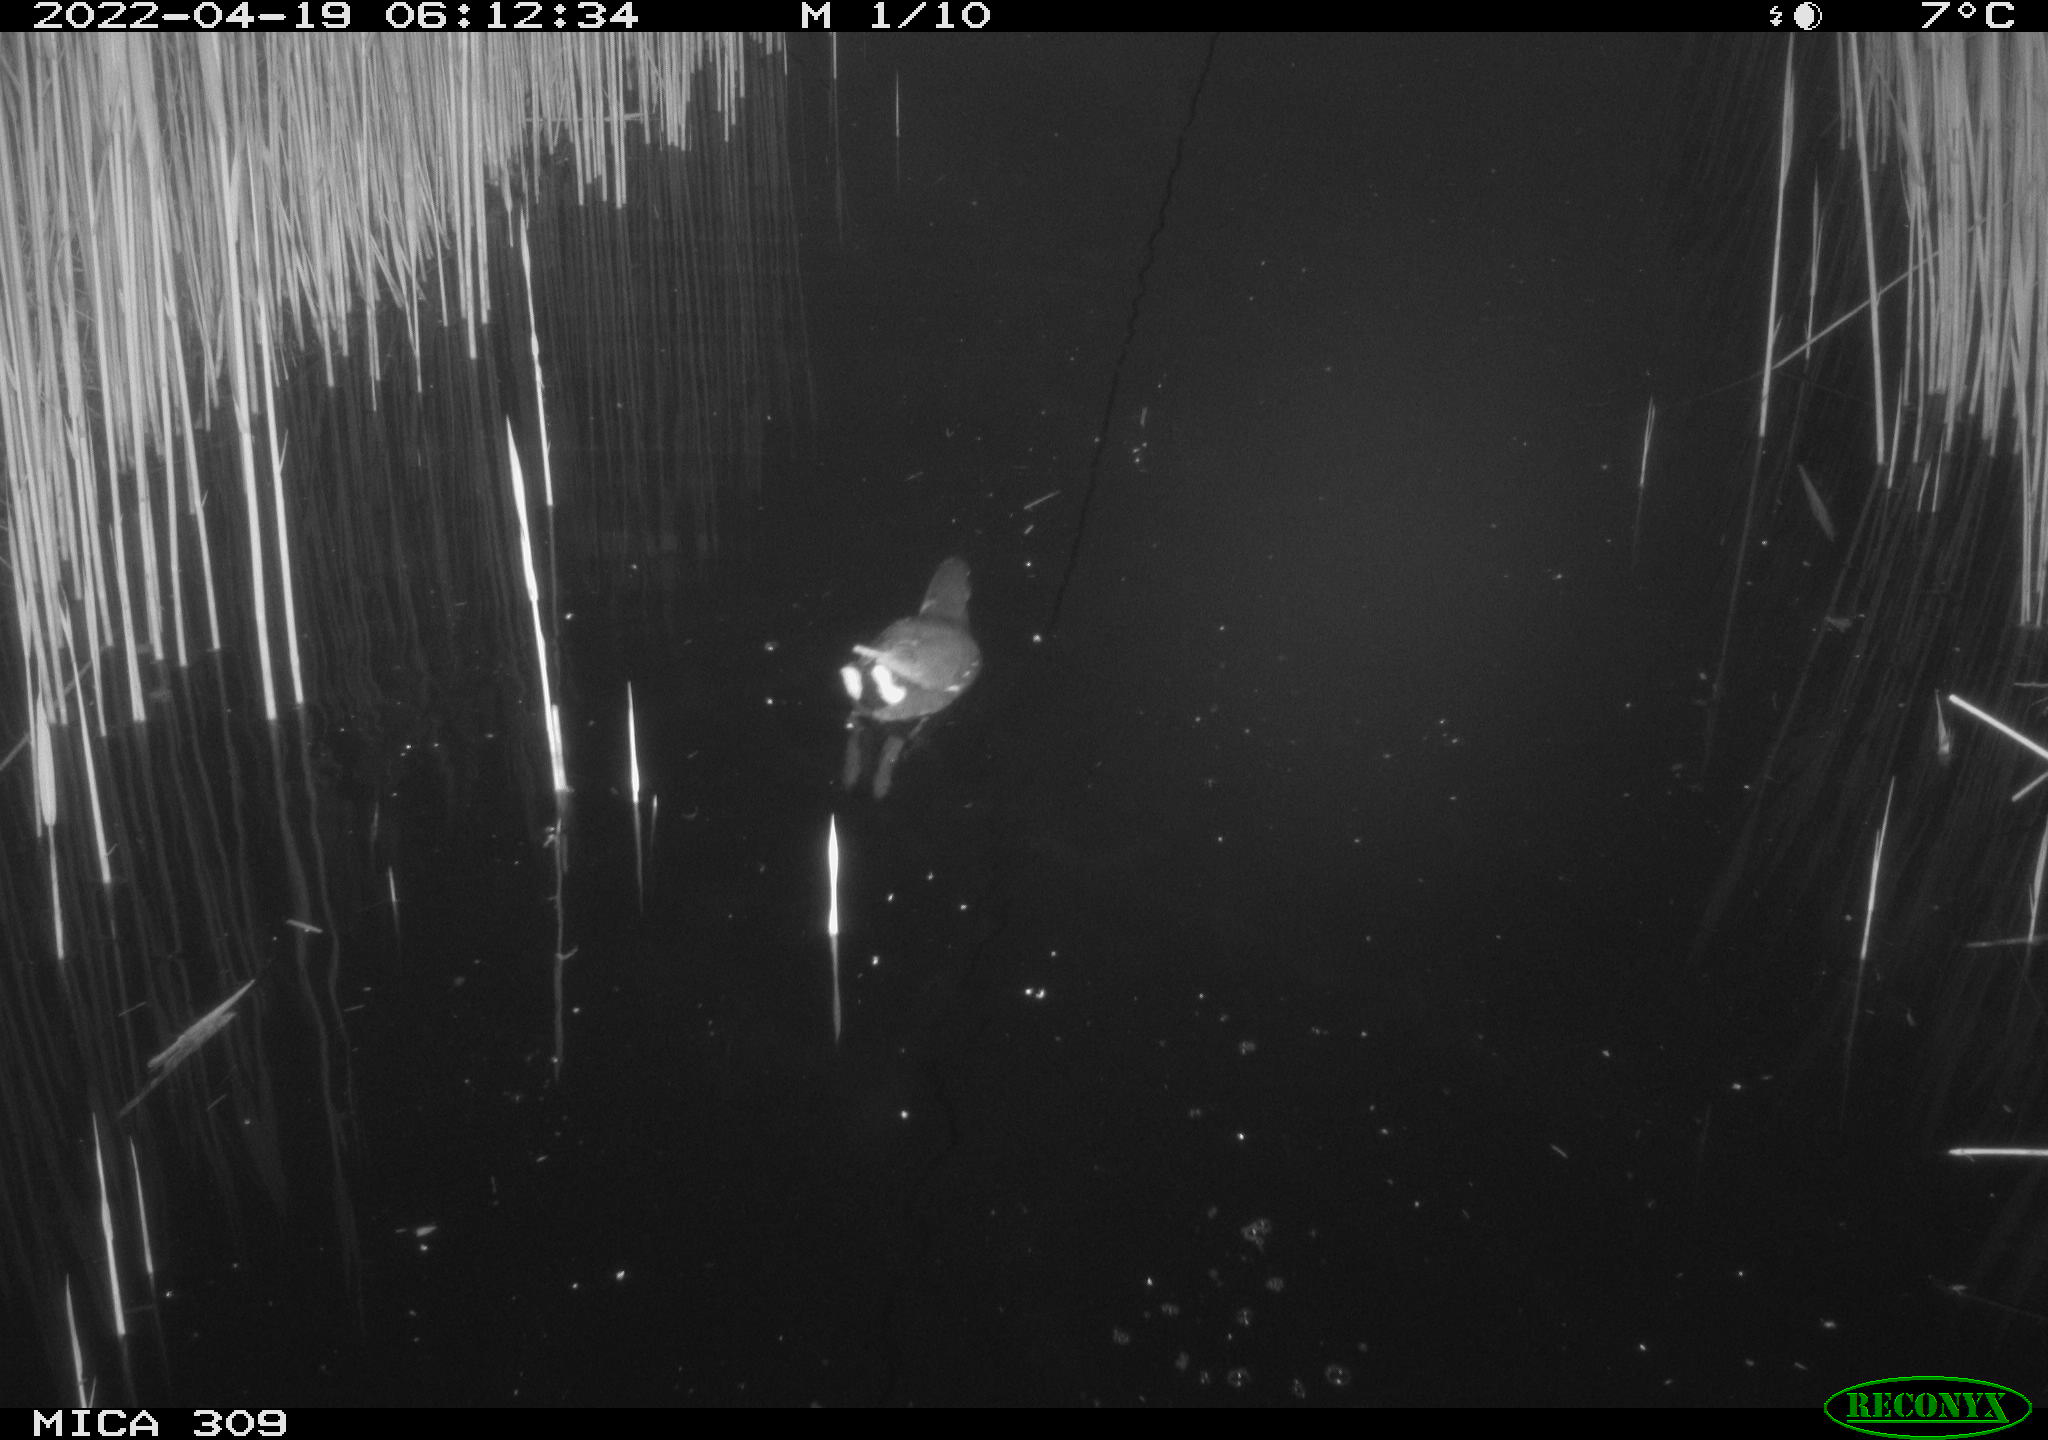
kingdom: Animalia
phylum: Chordata
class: Aves
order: Gruiformes
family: Rallidae
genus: Gallinula
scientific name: Gallinula chloropus
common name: Common moorhen
